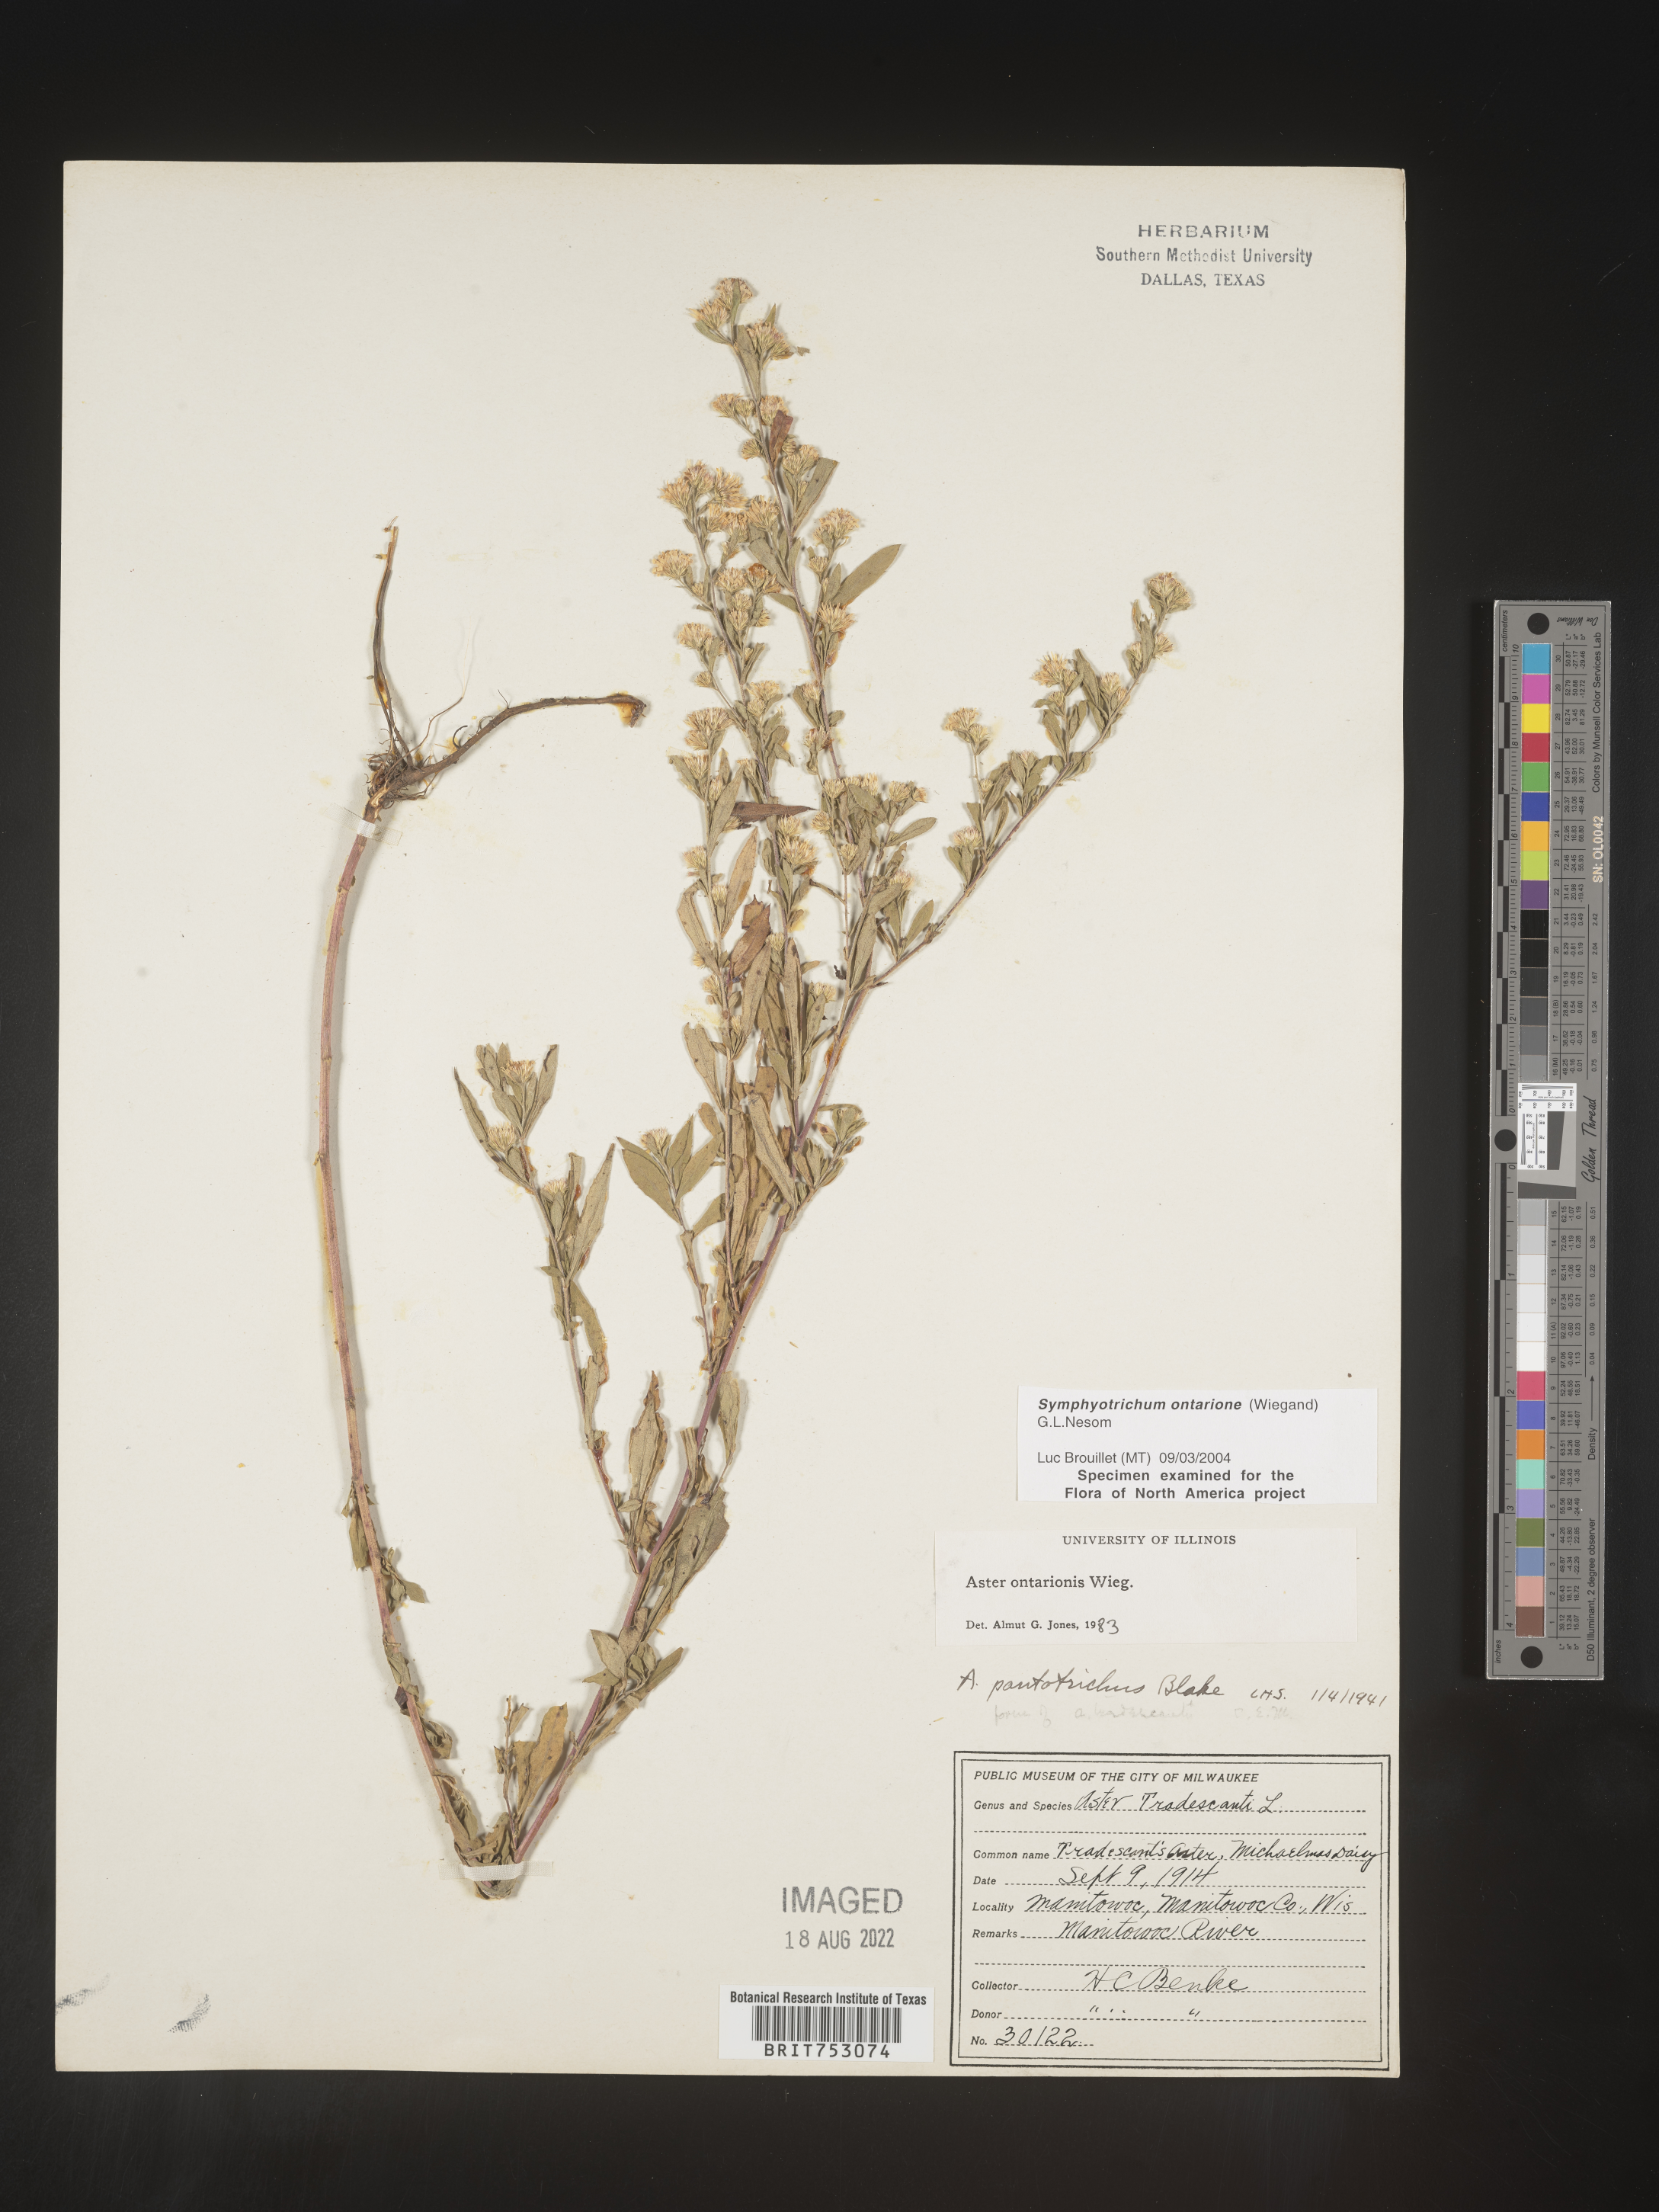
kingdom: Plantae
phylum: Tracheophyta
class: Magnoliopsida
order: Asterales
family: Asteraceae
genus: Symphyotrichum
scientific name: Symphyotrichum ontarionis
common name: Bottomland aster
